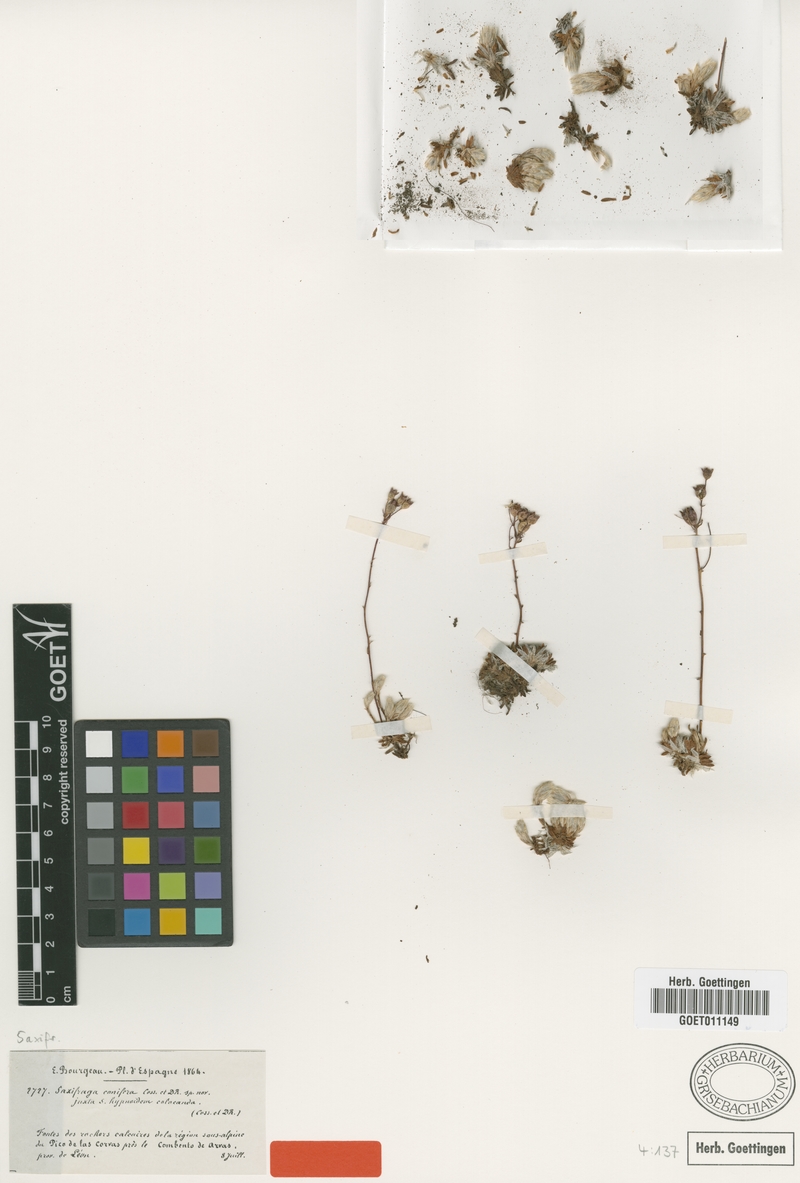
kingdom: Plantae
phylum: Tracheophyta
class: Magnoliopsida
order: Saxifragales
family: Saxifragaceae
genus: Saxifraga
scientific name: Saxifraga conifera
